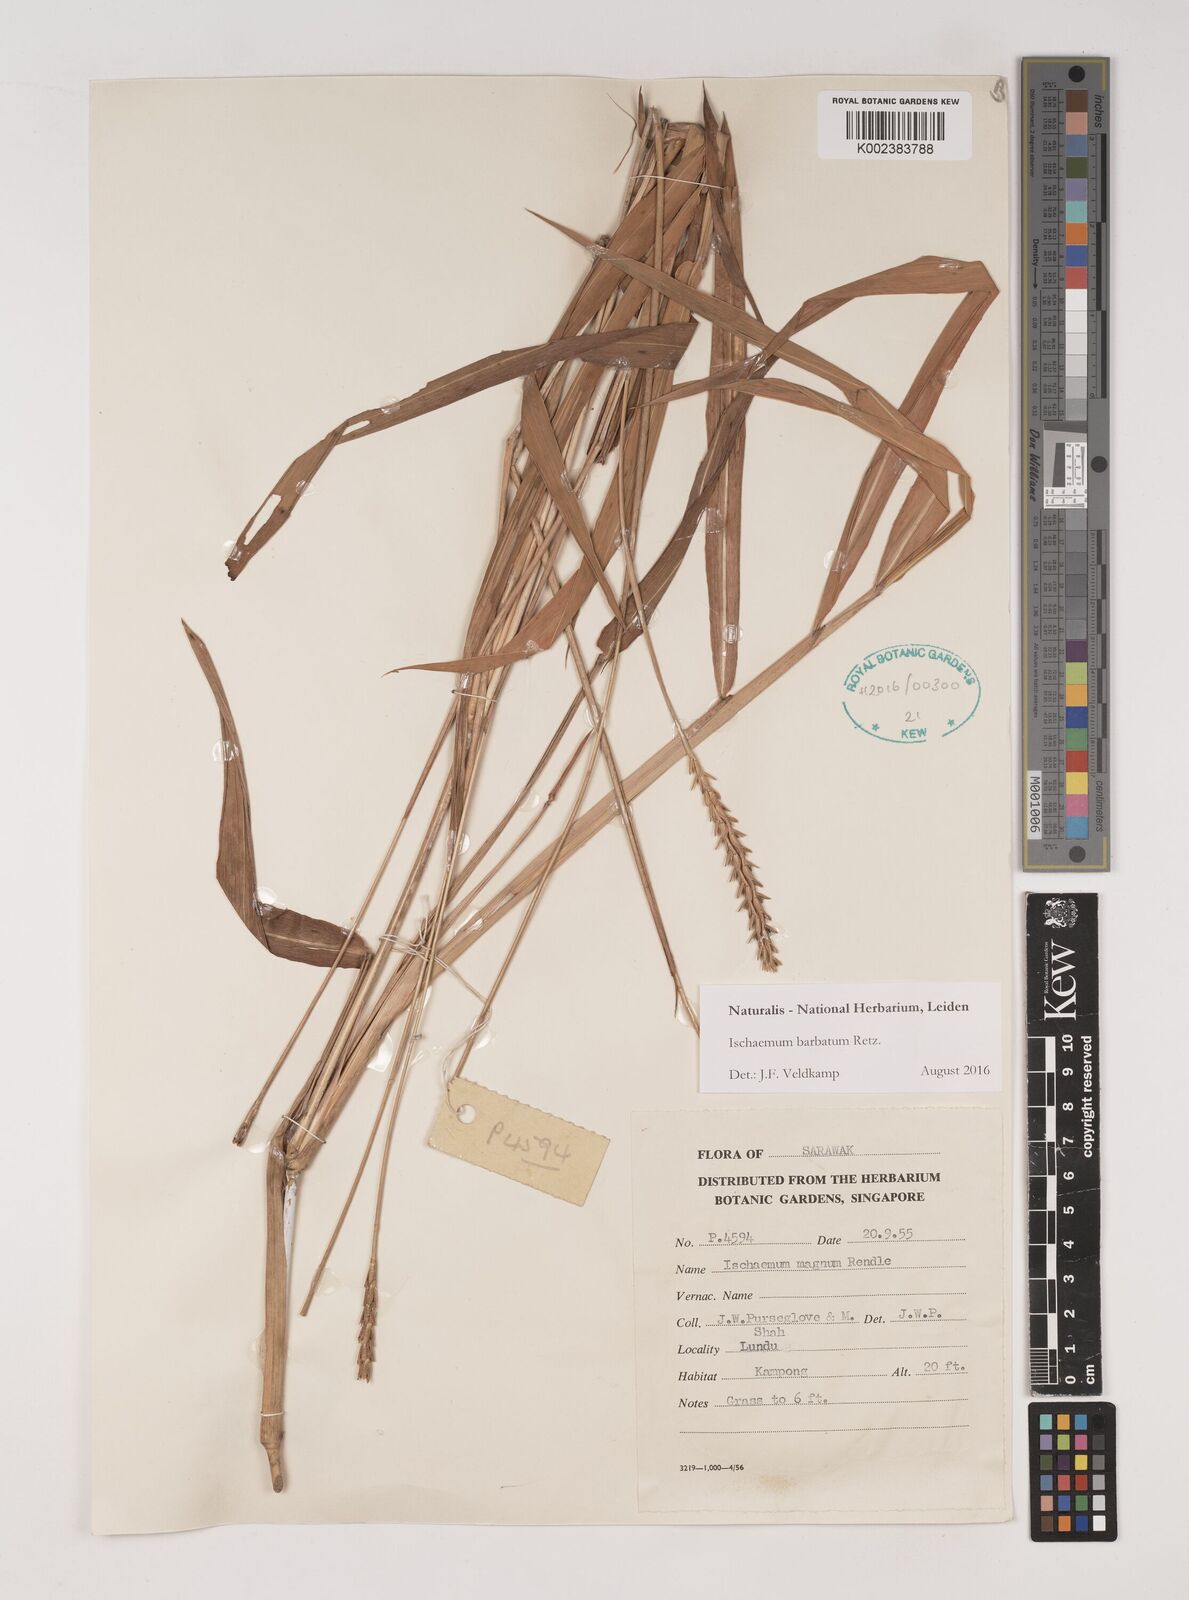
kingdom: Plantae
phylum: Tracheophyta
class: Liliopsida
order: Poales
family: Poaceae
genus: Ischaemum
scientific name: Ischaemum barbatum
